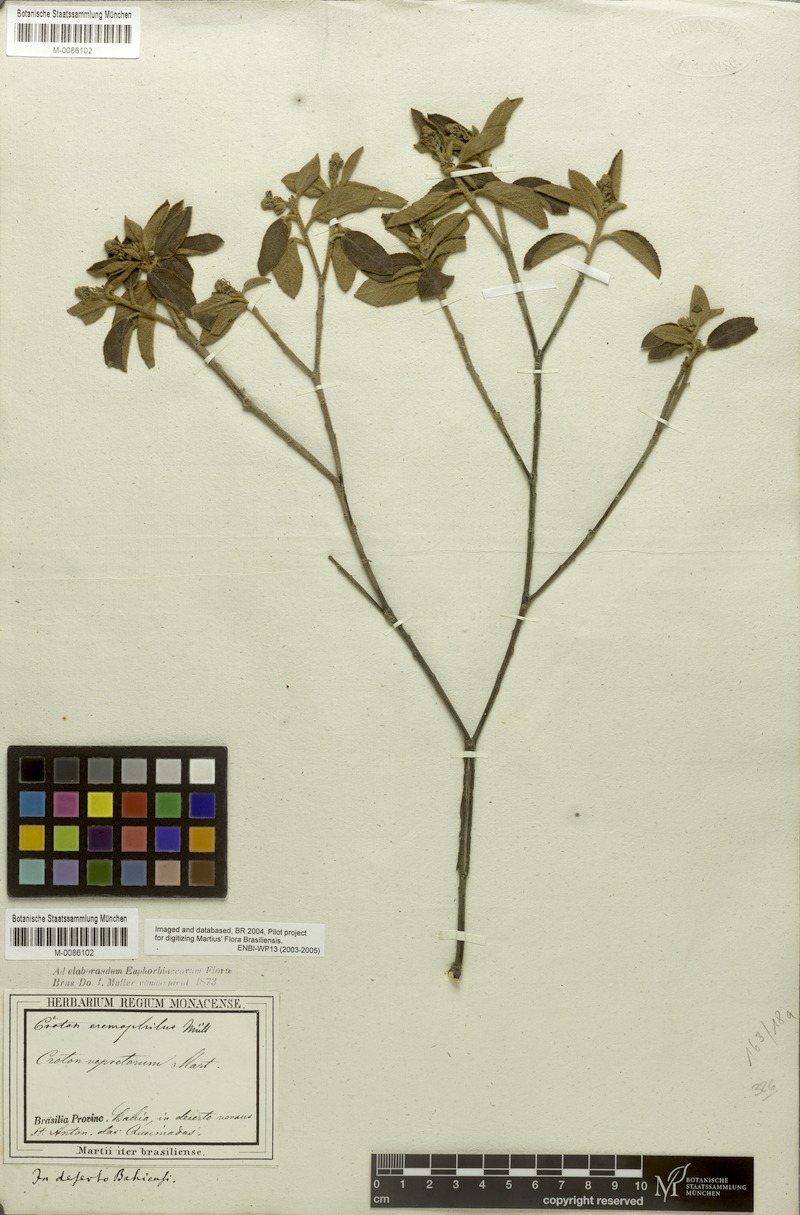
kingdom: Plantae
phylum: Tracheophyta
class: Magnoliopsida
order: Malpighiales
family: Euphorbiaceae
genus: Croton
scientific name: Croton eremophilus
